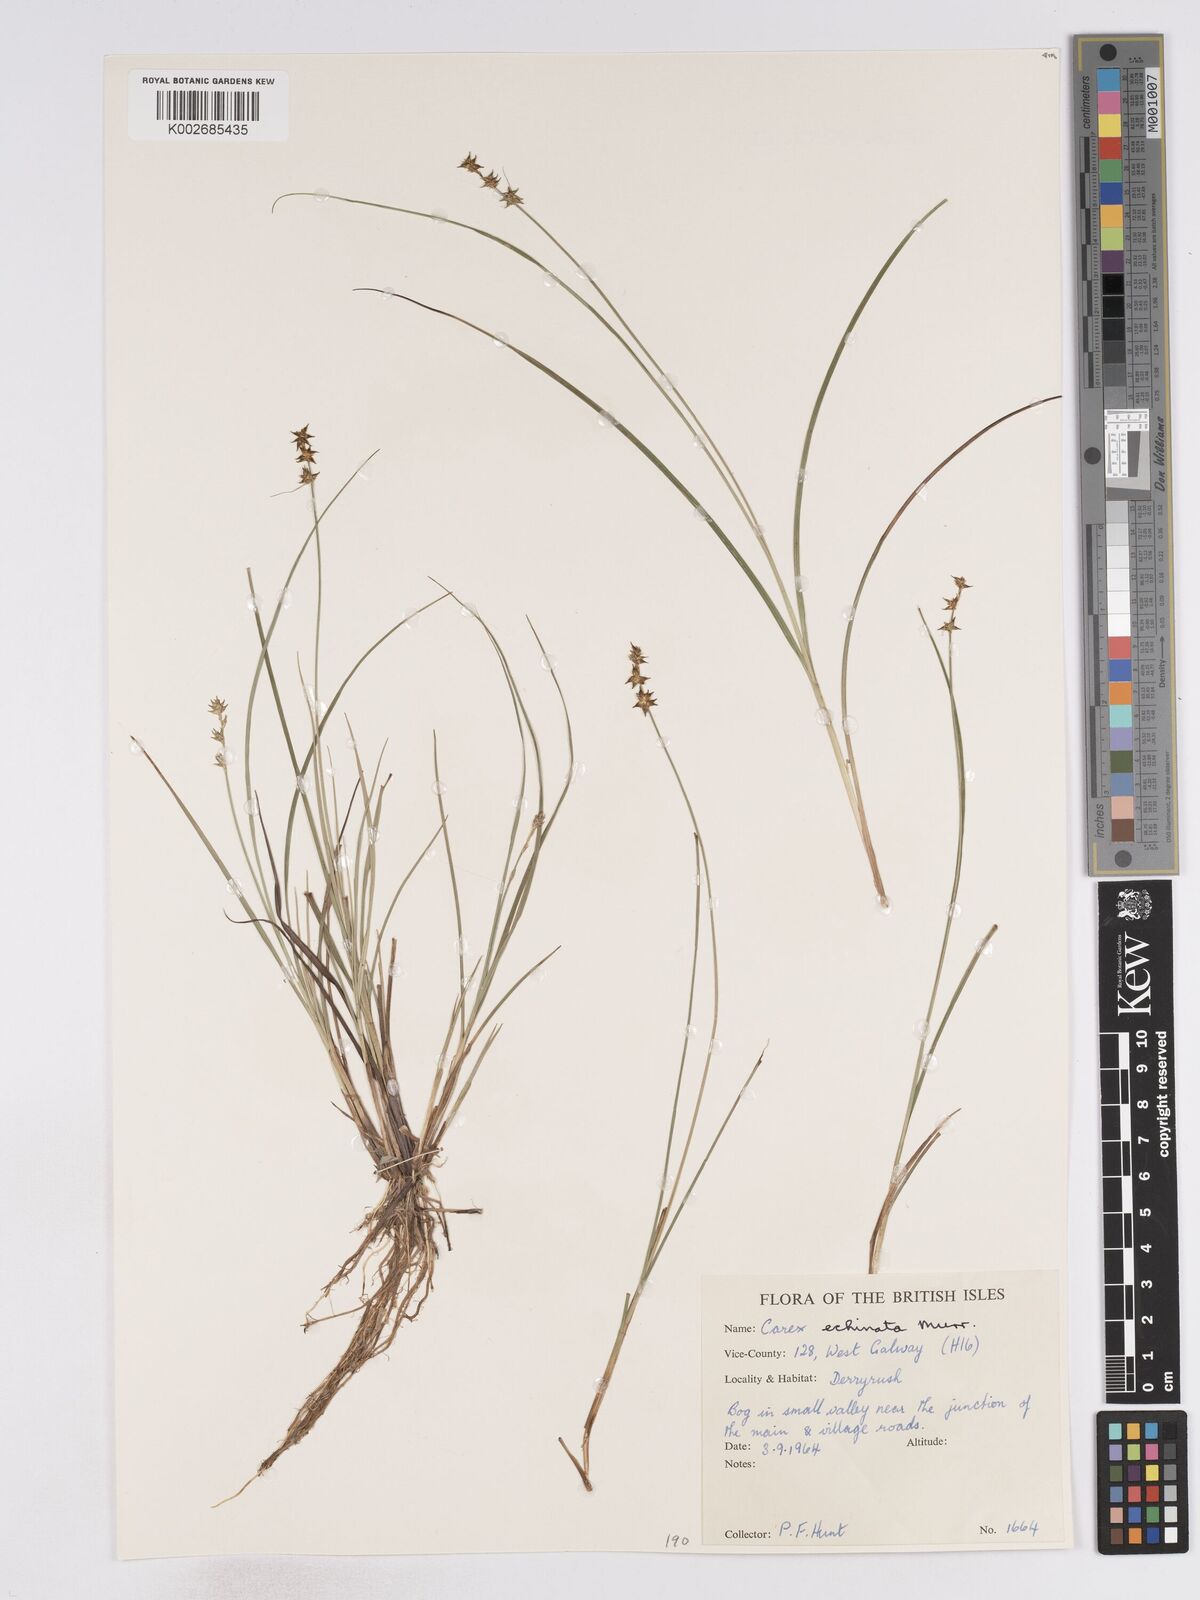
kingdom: Plantae
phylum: Tracheophyta
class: Liliopsida
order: Poales
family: Cyperaceae
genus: Carex
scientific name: Carex echinata
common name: Star sedge
